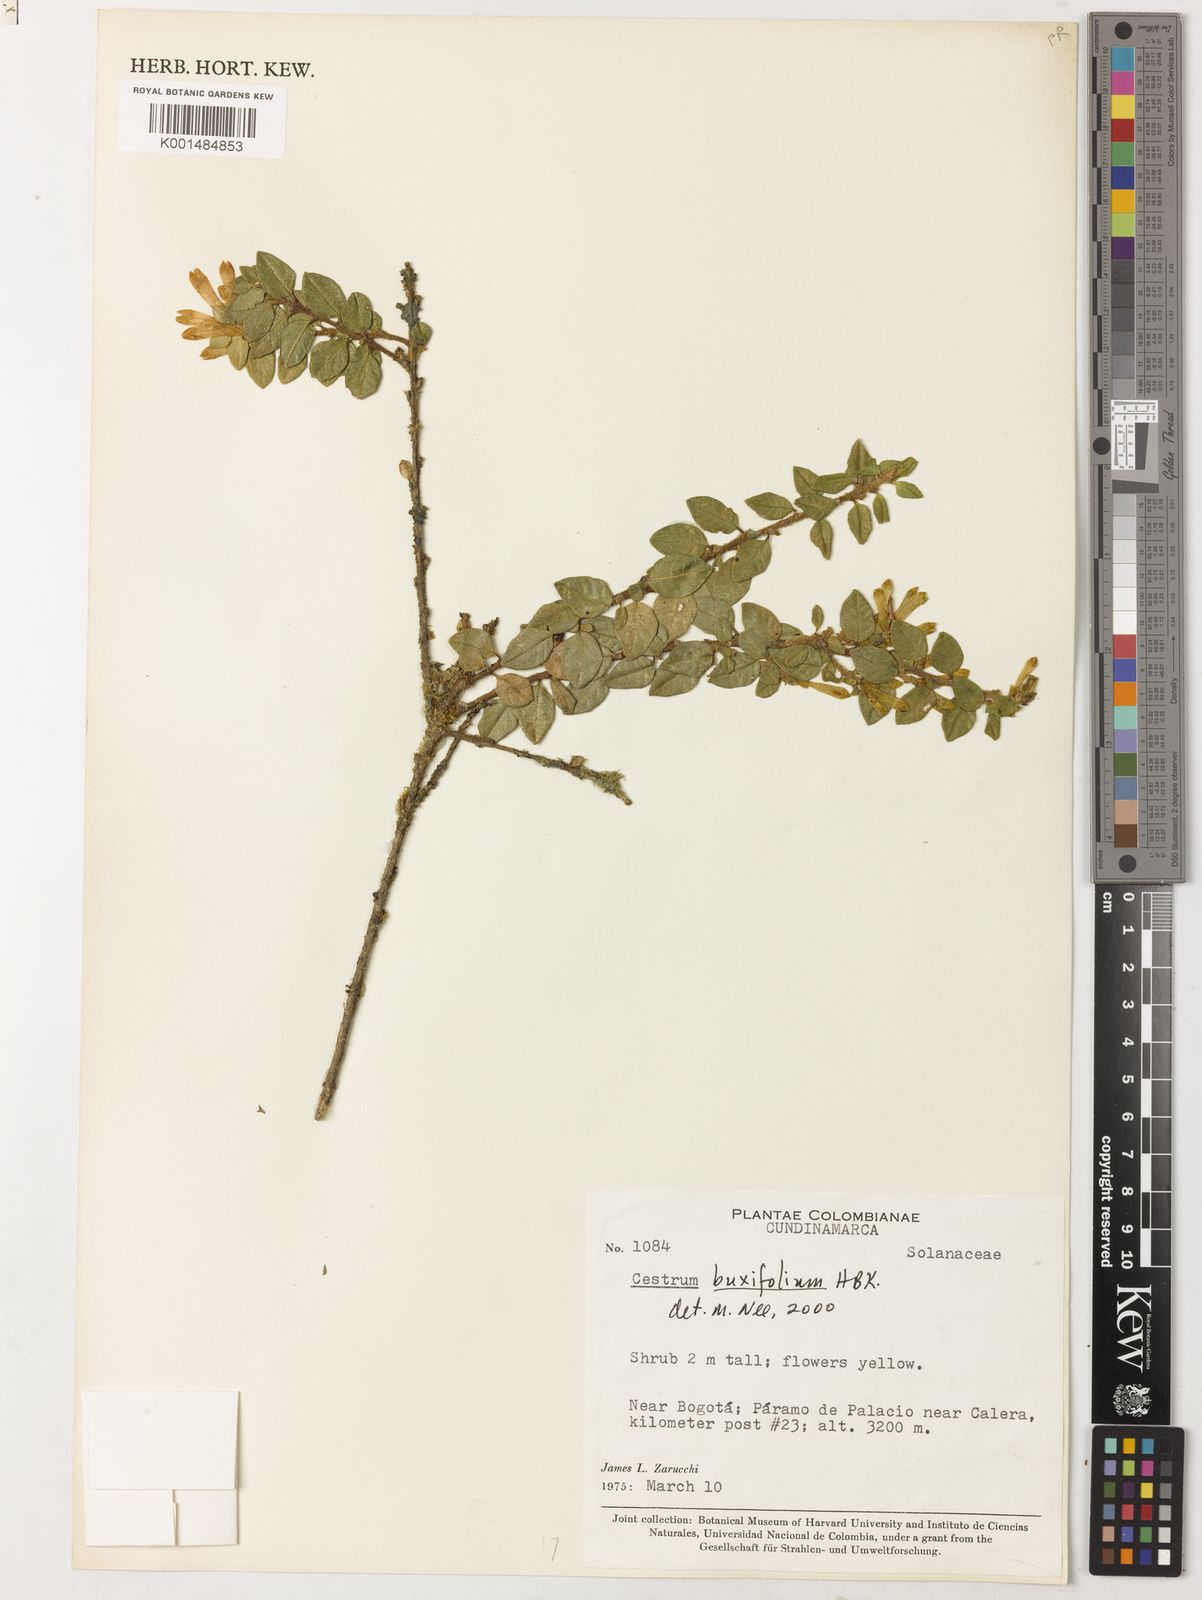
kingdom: Plantae
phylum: Tracheophyta
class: Magnoliopsida
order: Solanales
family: Solanaceae
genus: Cestrum
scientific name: Cestrum buxifolium
